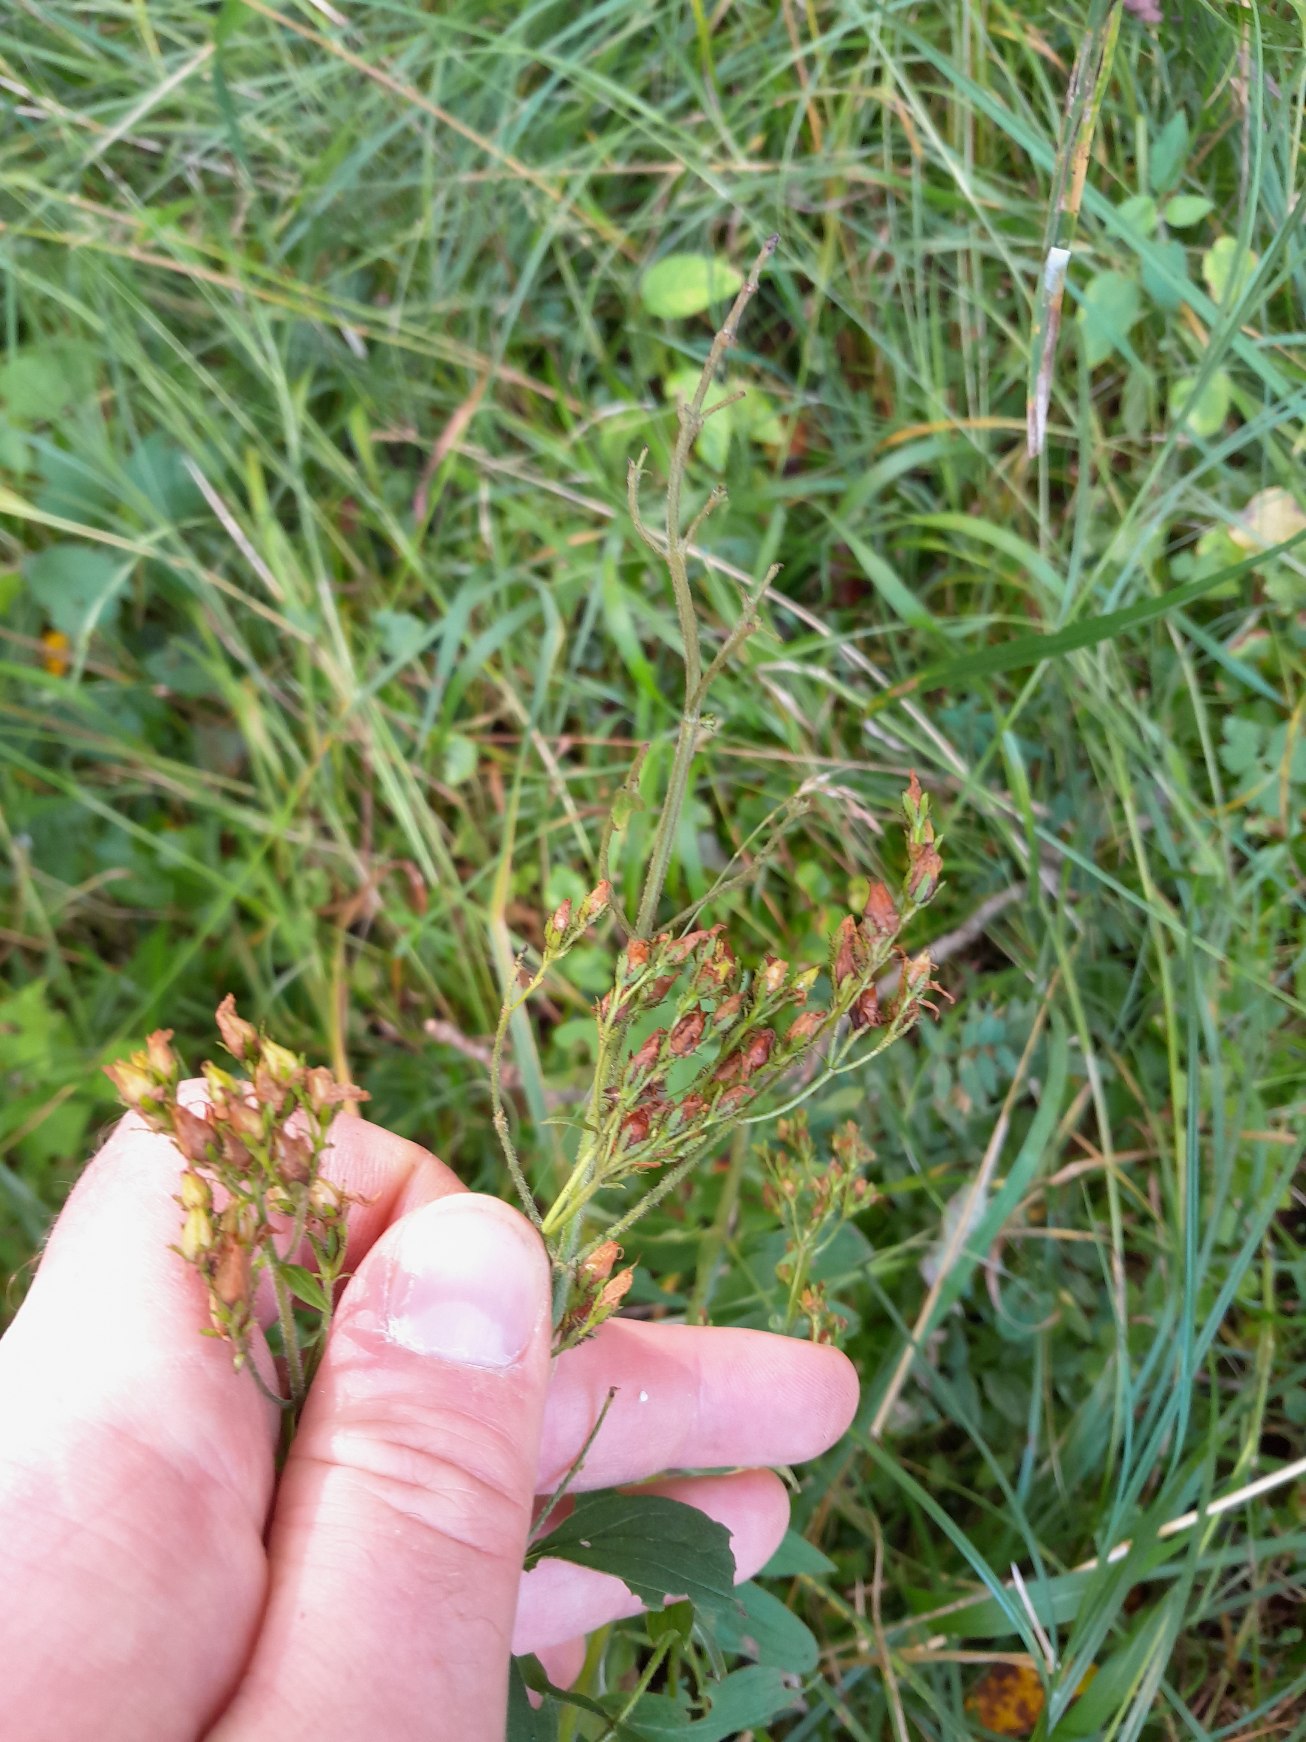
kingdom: Plantae
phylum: Tracheophyta
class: Magnoliopsida
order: Malpighiales
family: Hypericaceae
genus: Hypericum
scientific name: Hypericum hirsutum
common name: Lådden perikon
